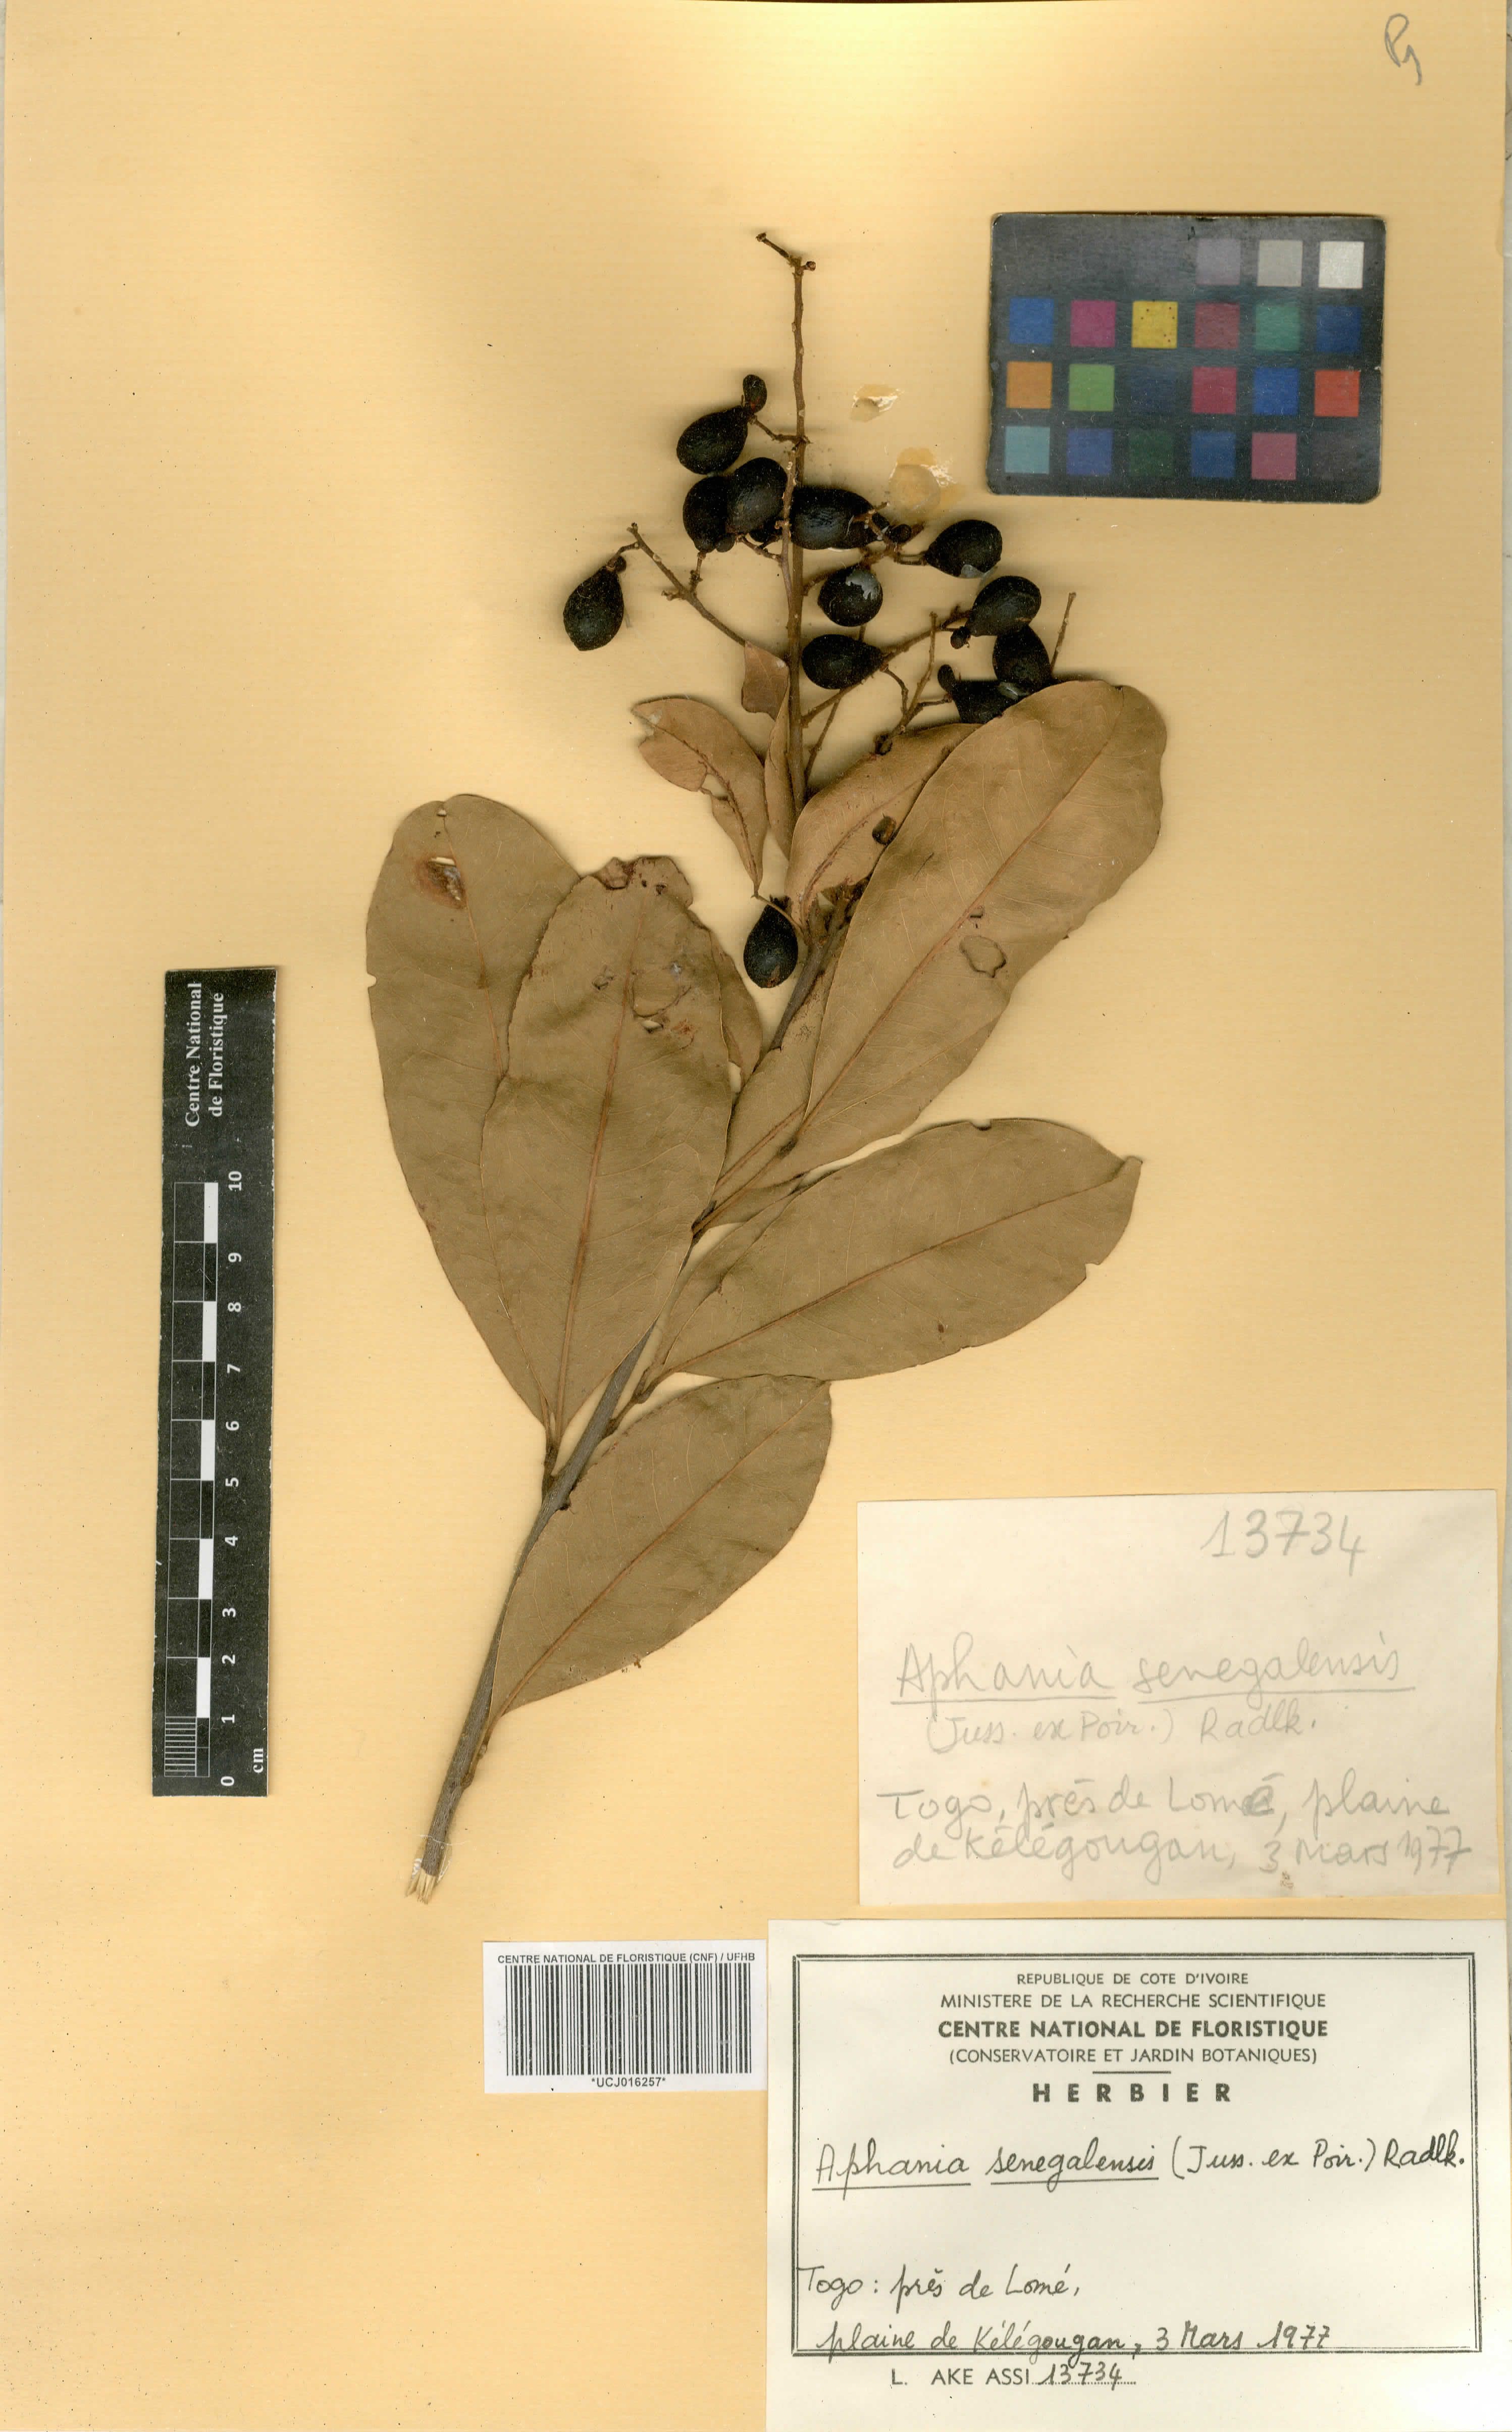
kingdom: Plantae
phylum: Tracheophyta
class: Magnoliopsida
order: Sapindales
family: Sapindaceae
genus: Lepisanthes
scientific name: Lepisanthes senegalensis
